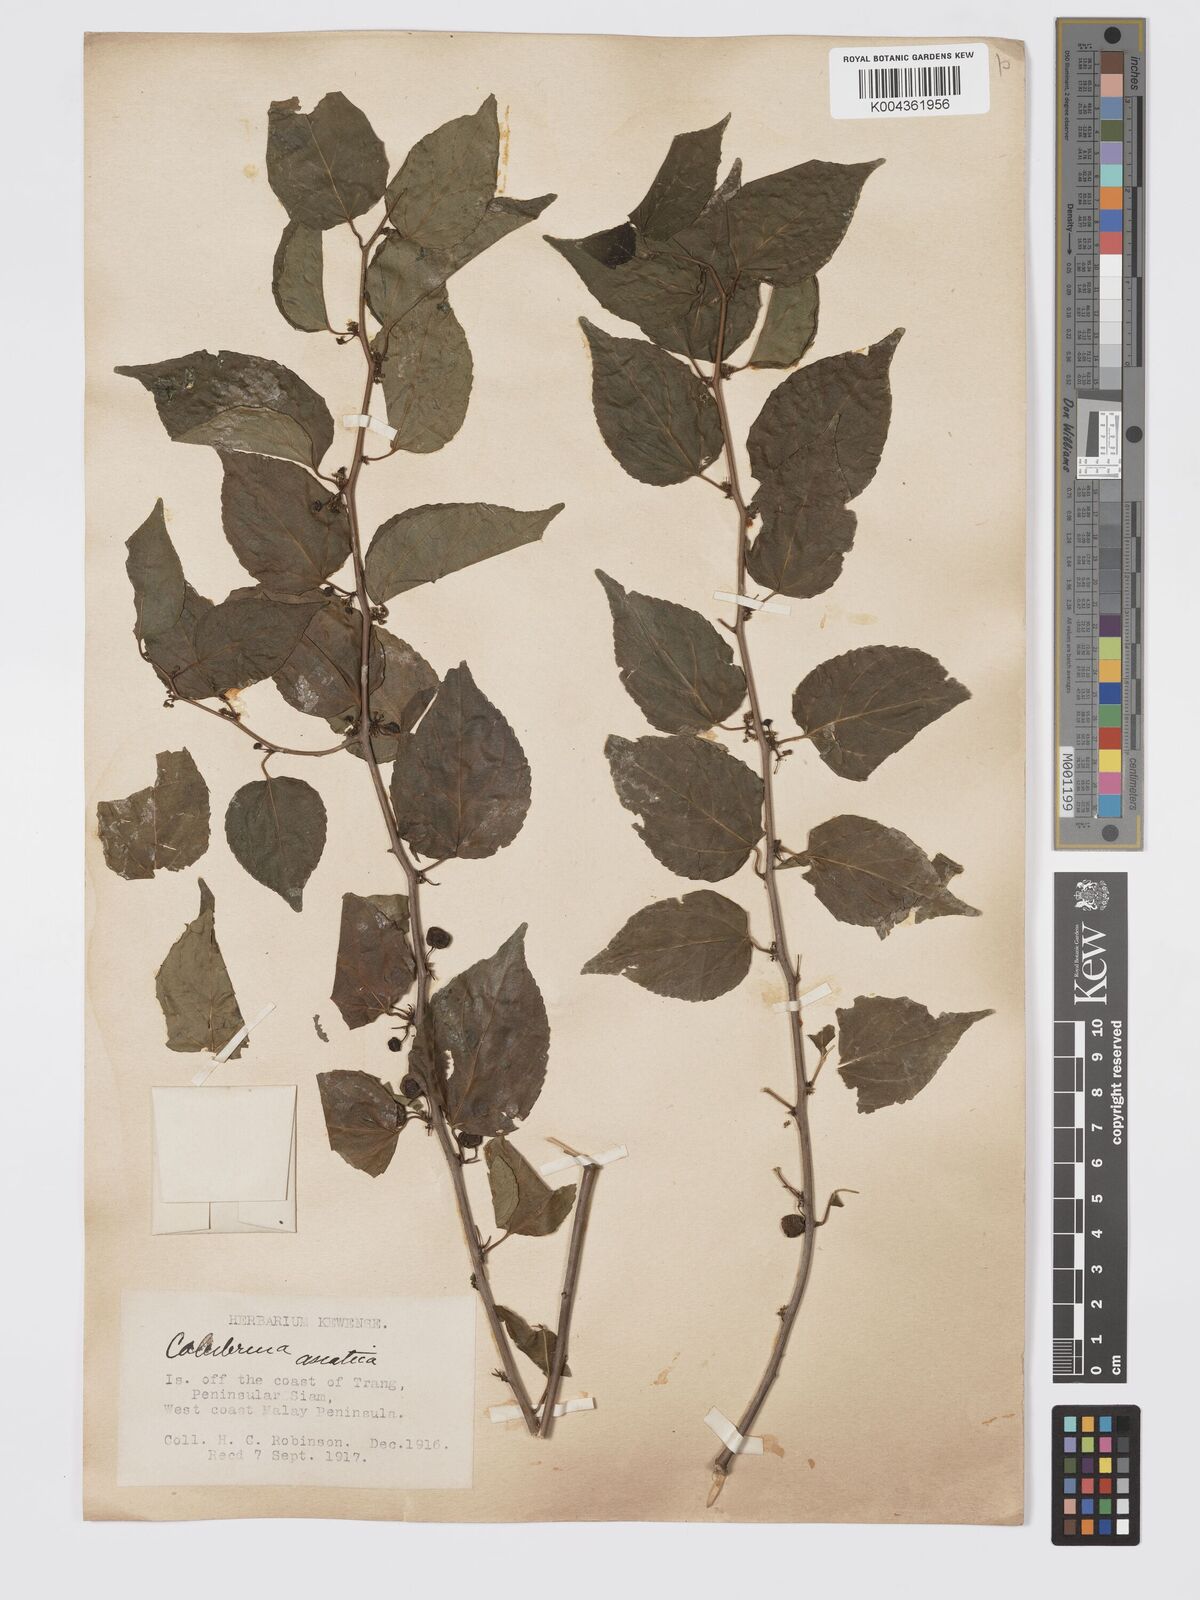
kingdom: Plantae
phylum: Tracheophyta
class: Magnoliopsida
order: Rosales
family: Rhamnaceae
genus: Colubrina
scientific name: Colubrina asiatica
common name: Asian nakedwood
